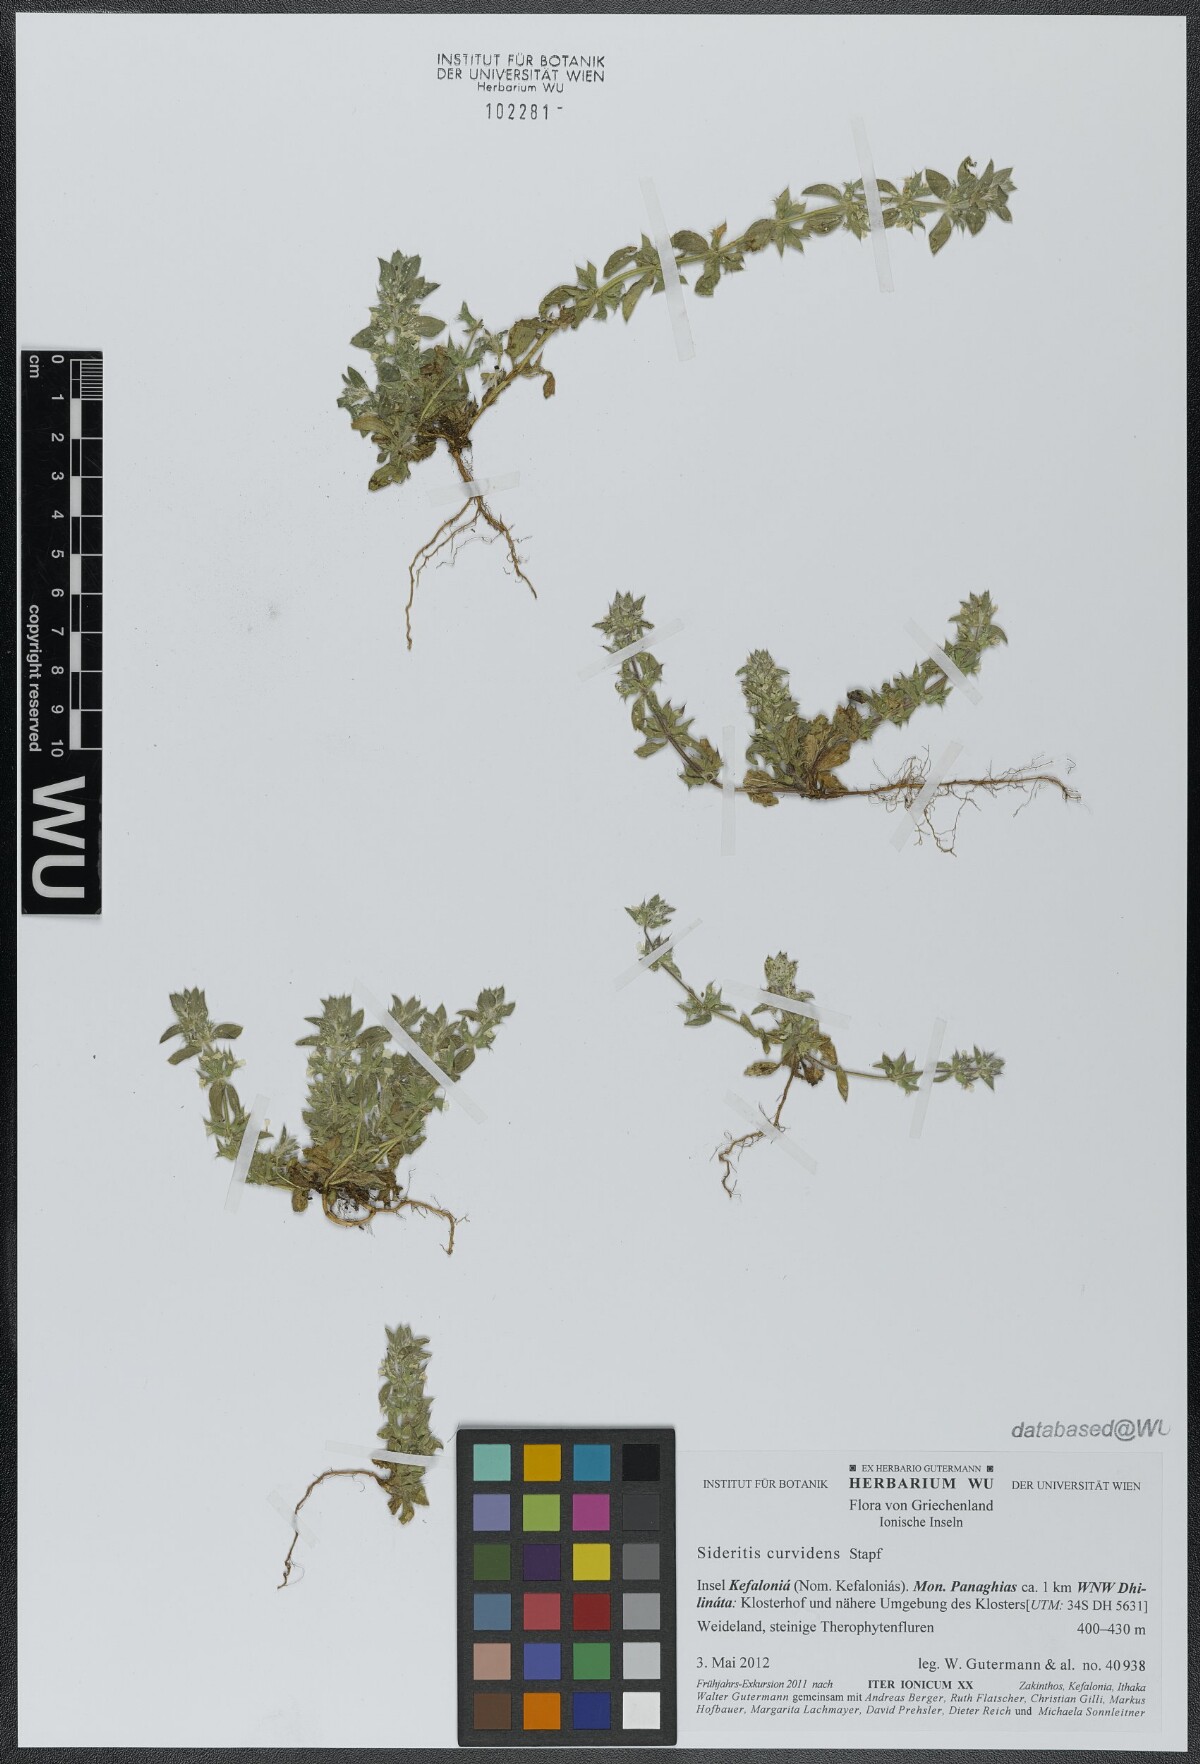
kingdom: Plantae
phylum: Tracheophyta
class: Magnoliopsida
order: Lamiales
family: Lamiaceae
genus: Sideritis
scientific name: Sideritis romana
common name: Simplebeak ironwort
